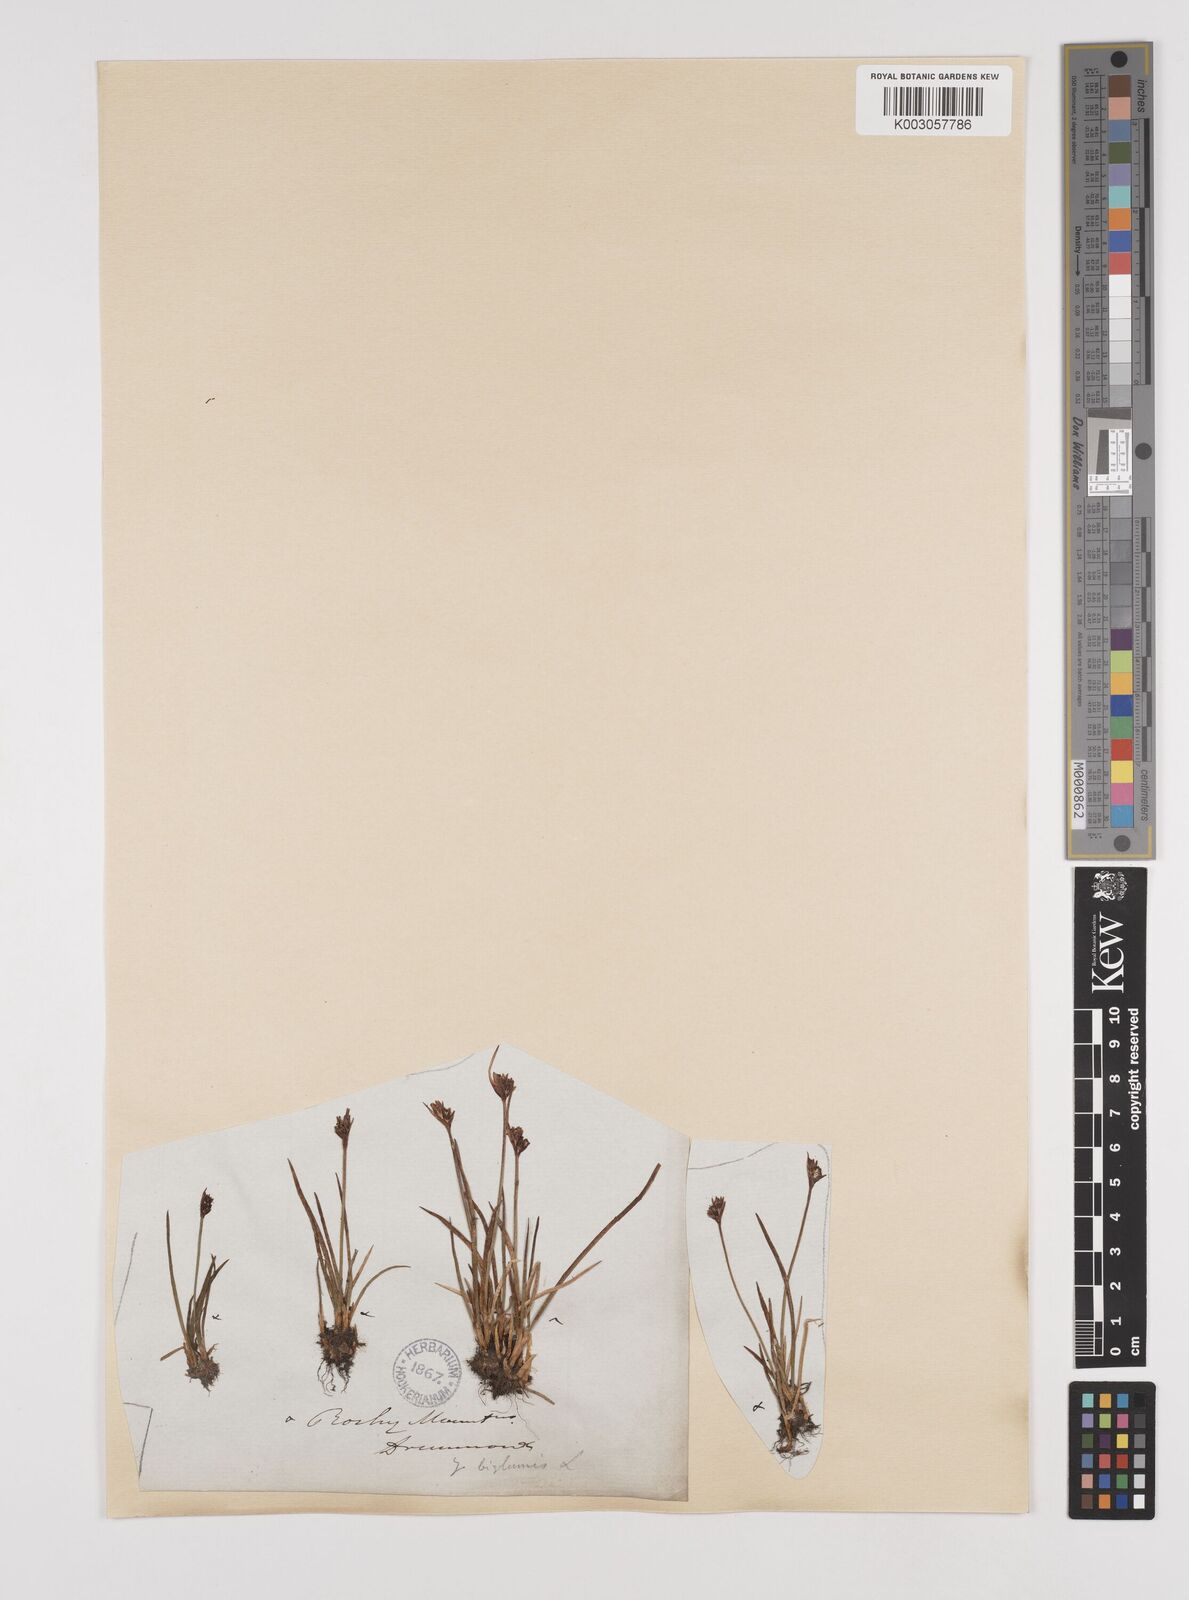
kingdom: Plantae
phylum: Tracheophyta
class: Liliopsida
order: Poales
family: Juncaceae
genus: Juncus
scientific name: Juncus biglumis
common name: Two-flowered rush
